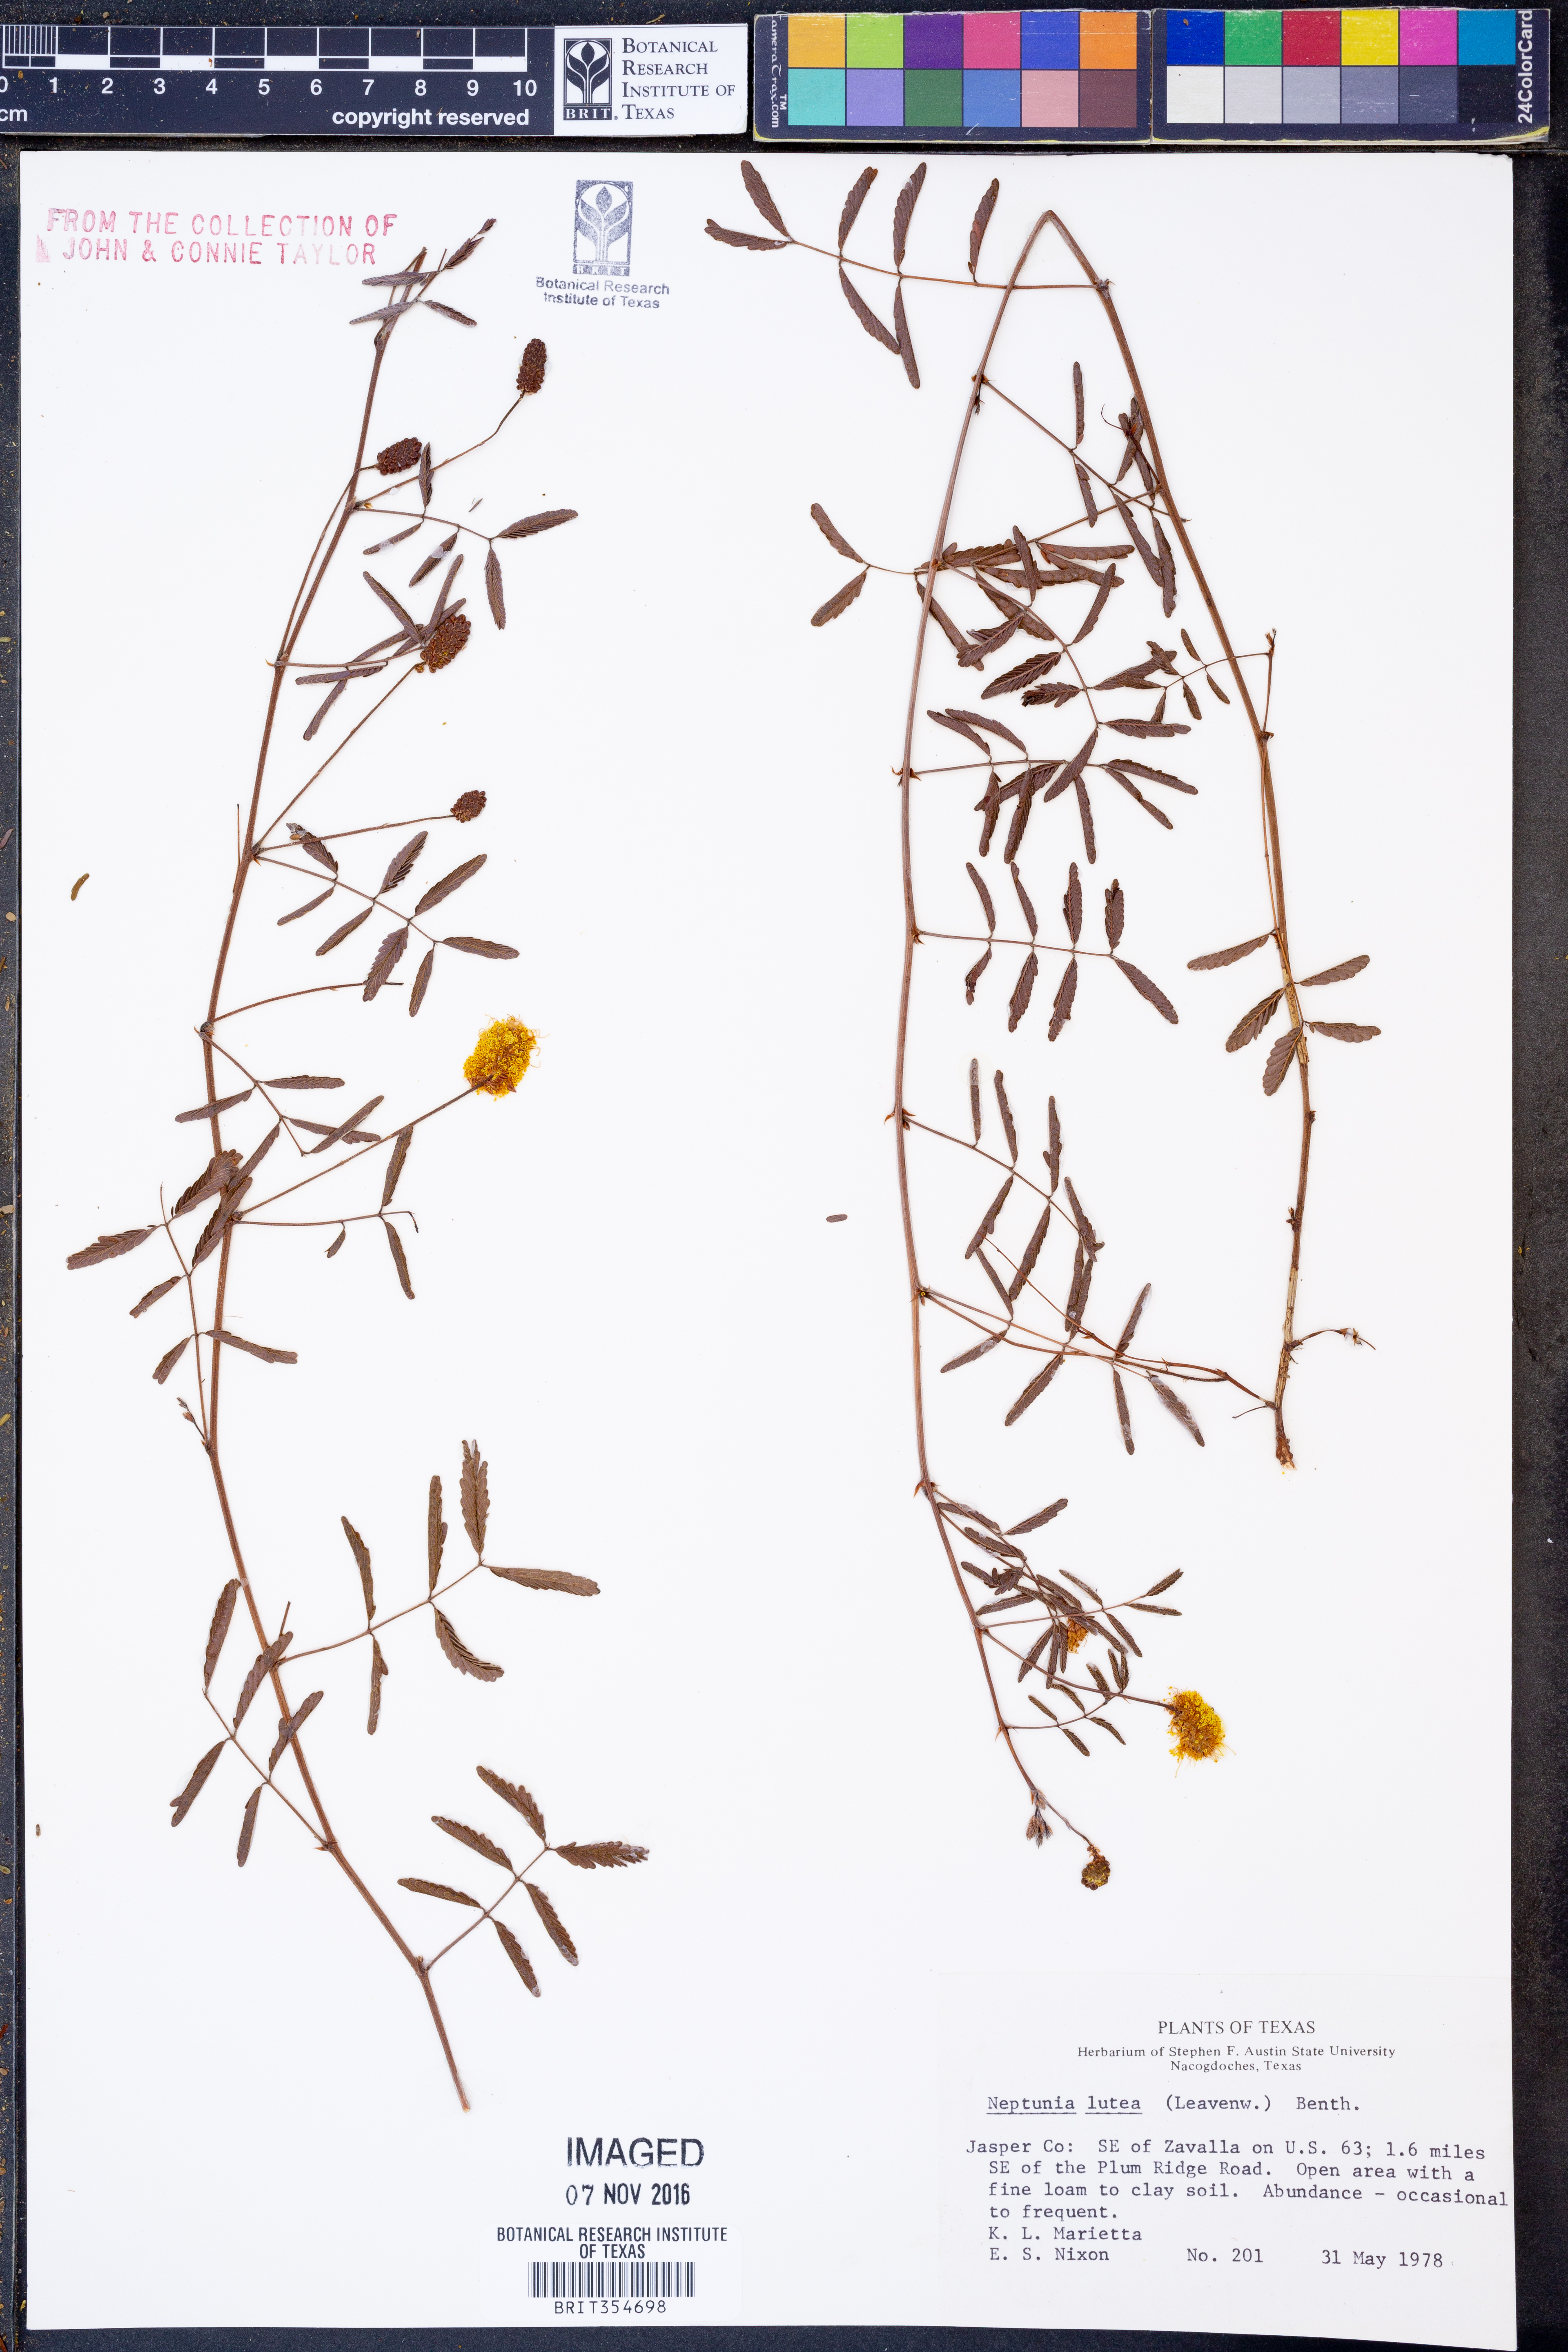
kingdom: Plantae
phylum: Tracheophyta
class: Magnoliopsida
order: Fabales
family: Fabaceae
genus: Neptunia
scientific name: Neptunia lutea
